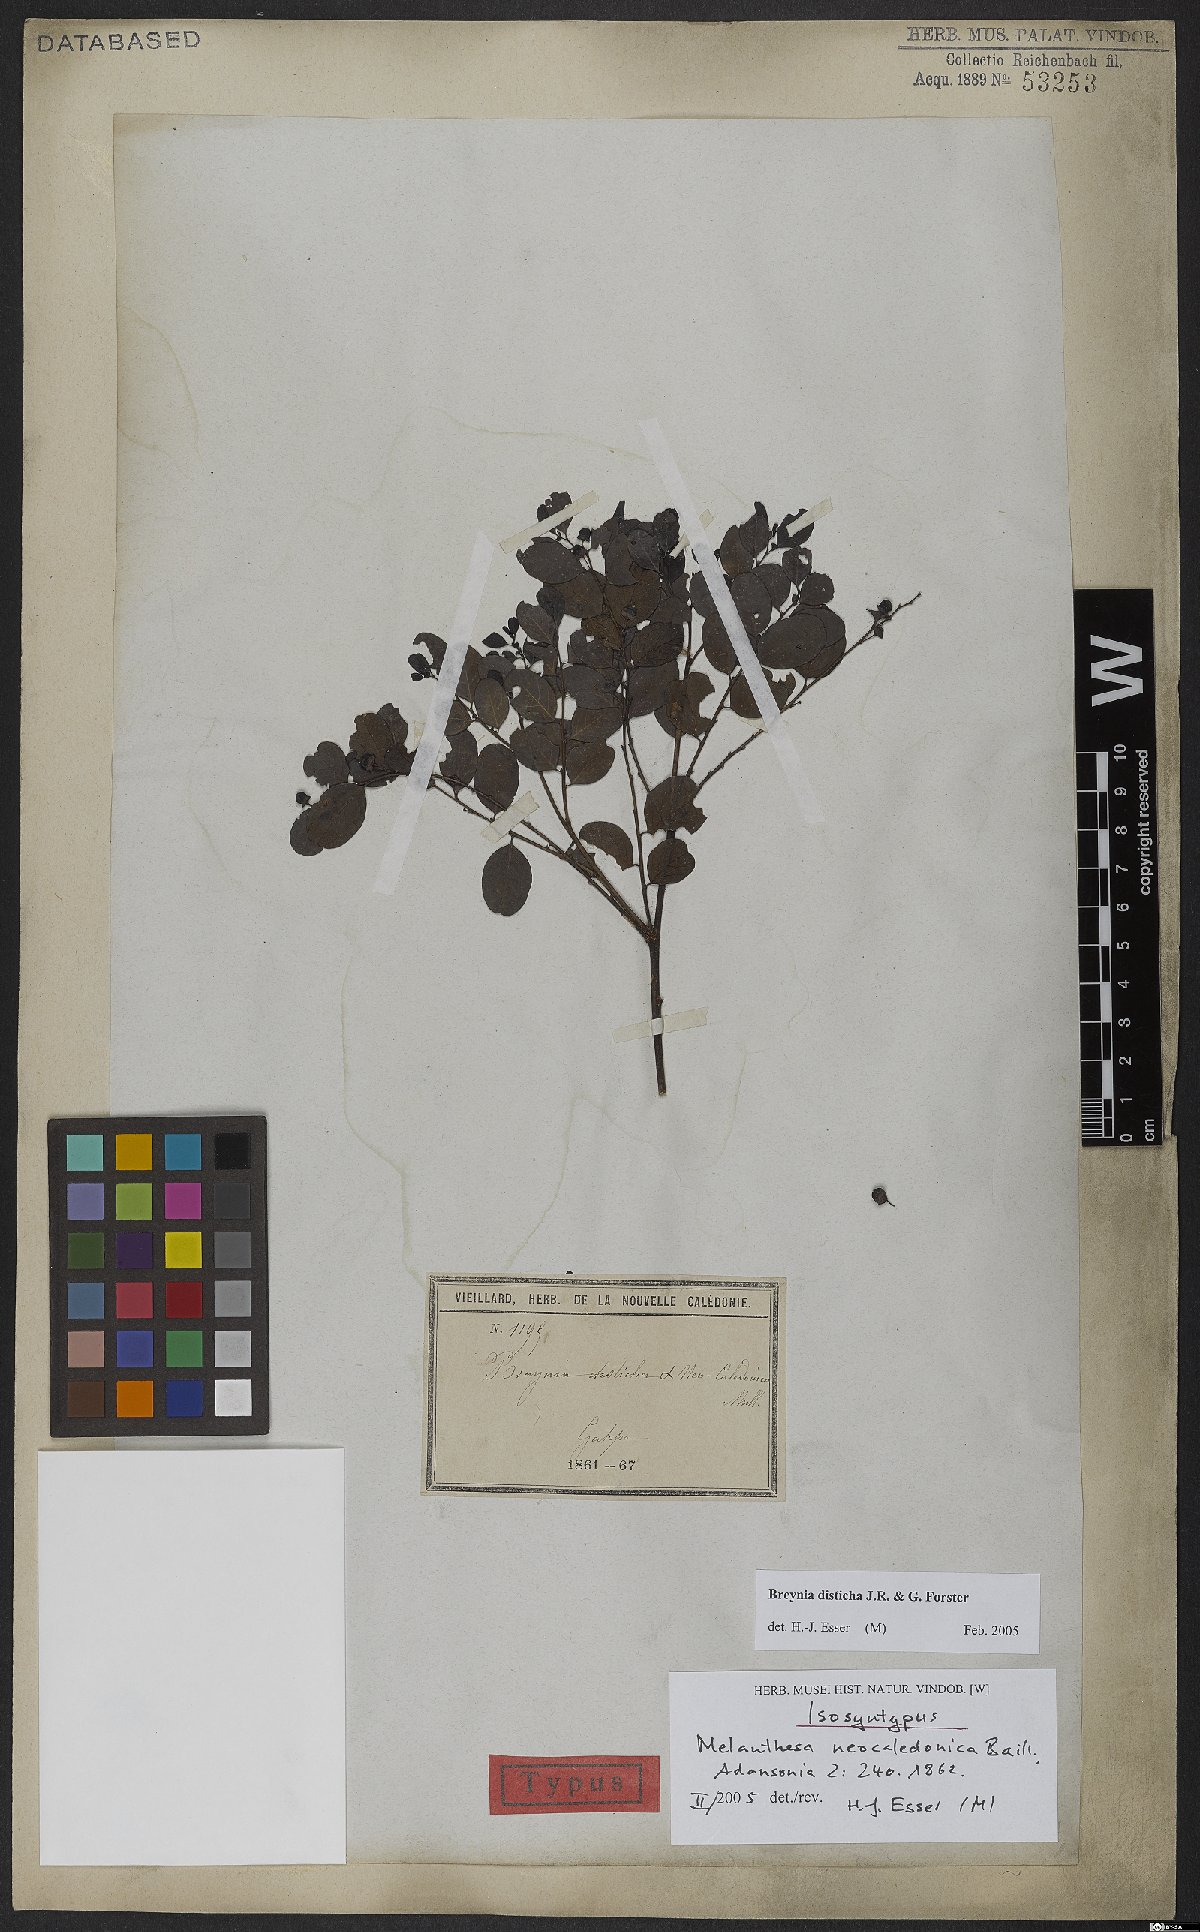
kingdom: Plantae
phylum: Tracheophyta
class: Magnoliopsida
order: Malpighiales
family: Phyllanthaceae
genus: Breynia
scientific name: Breynia disticha
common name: Snowbush
